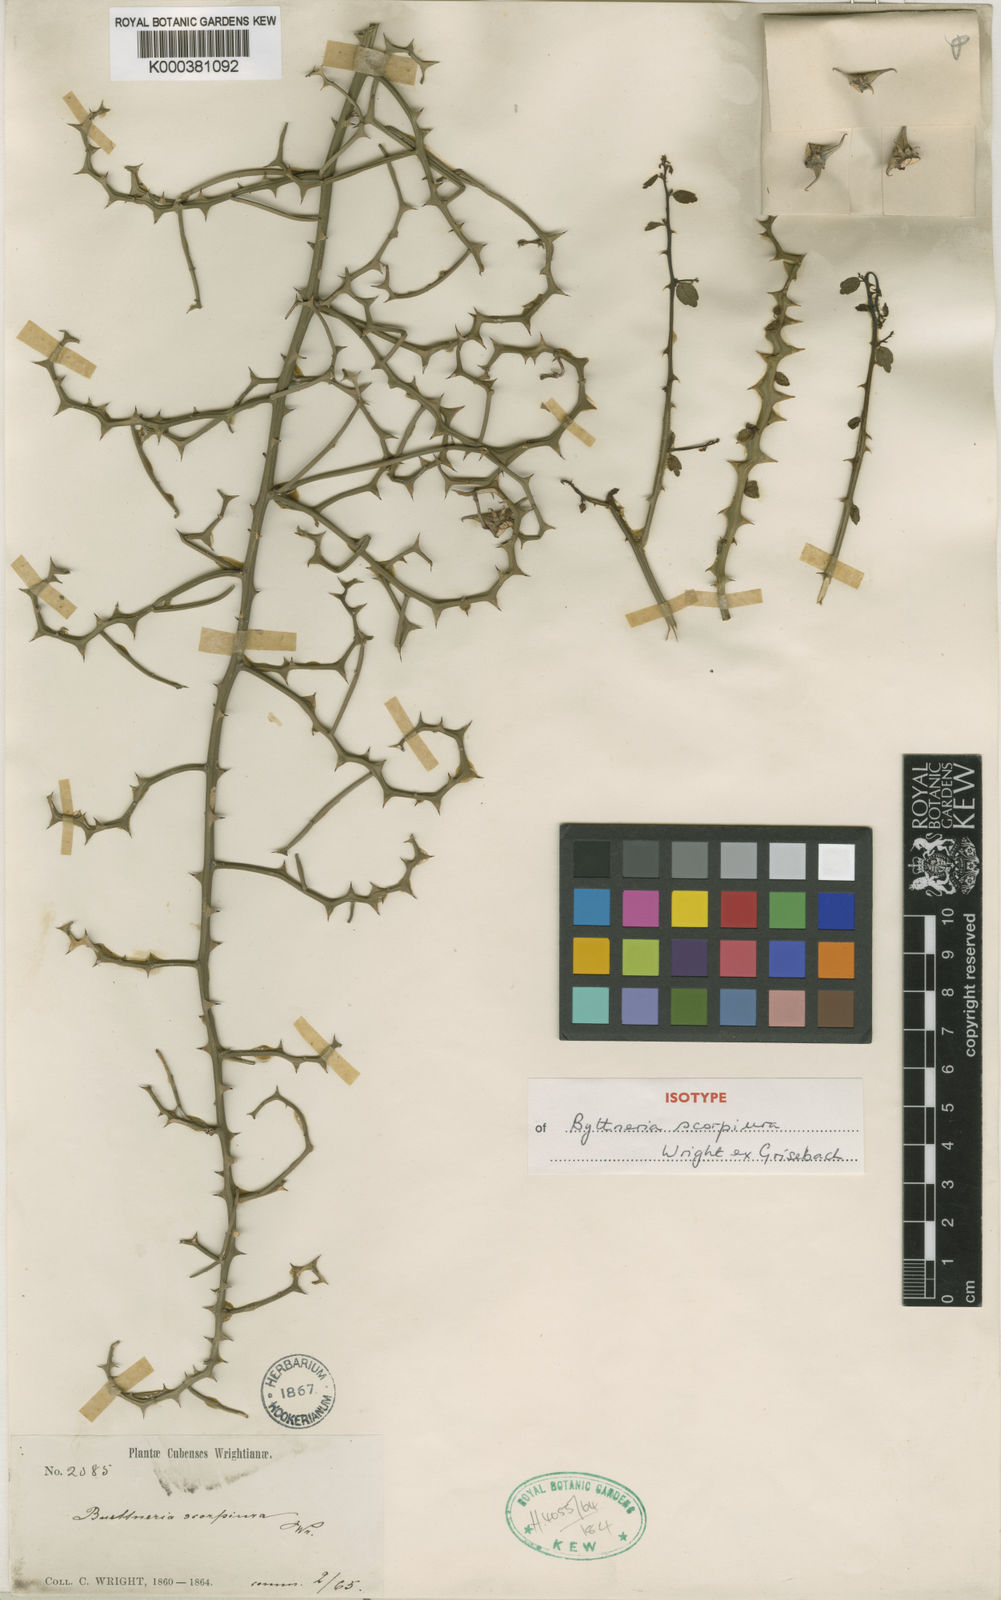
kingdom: Plantae
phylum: Tracheophyta
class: Magnoliopsida
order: Malvales
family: Malvaceae
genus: Byttneria
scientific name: Byttneria microphylla
